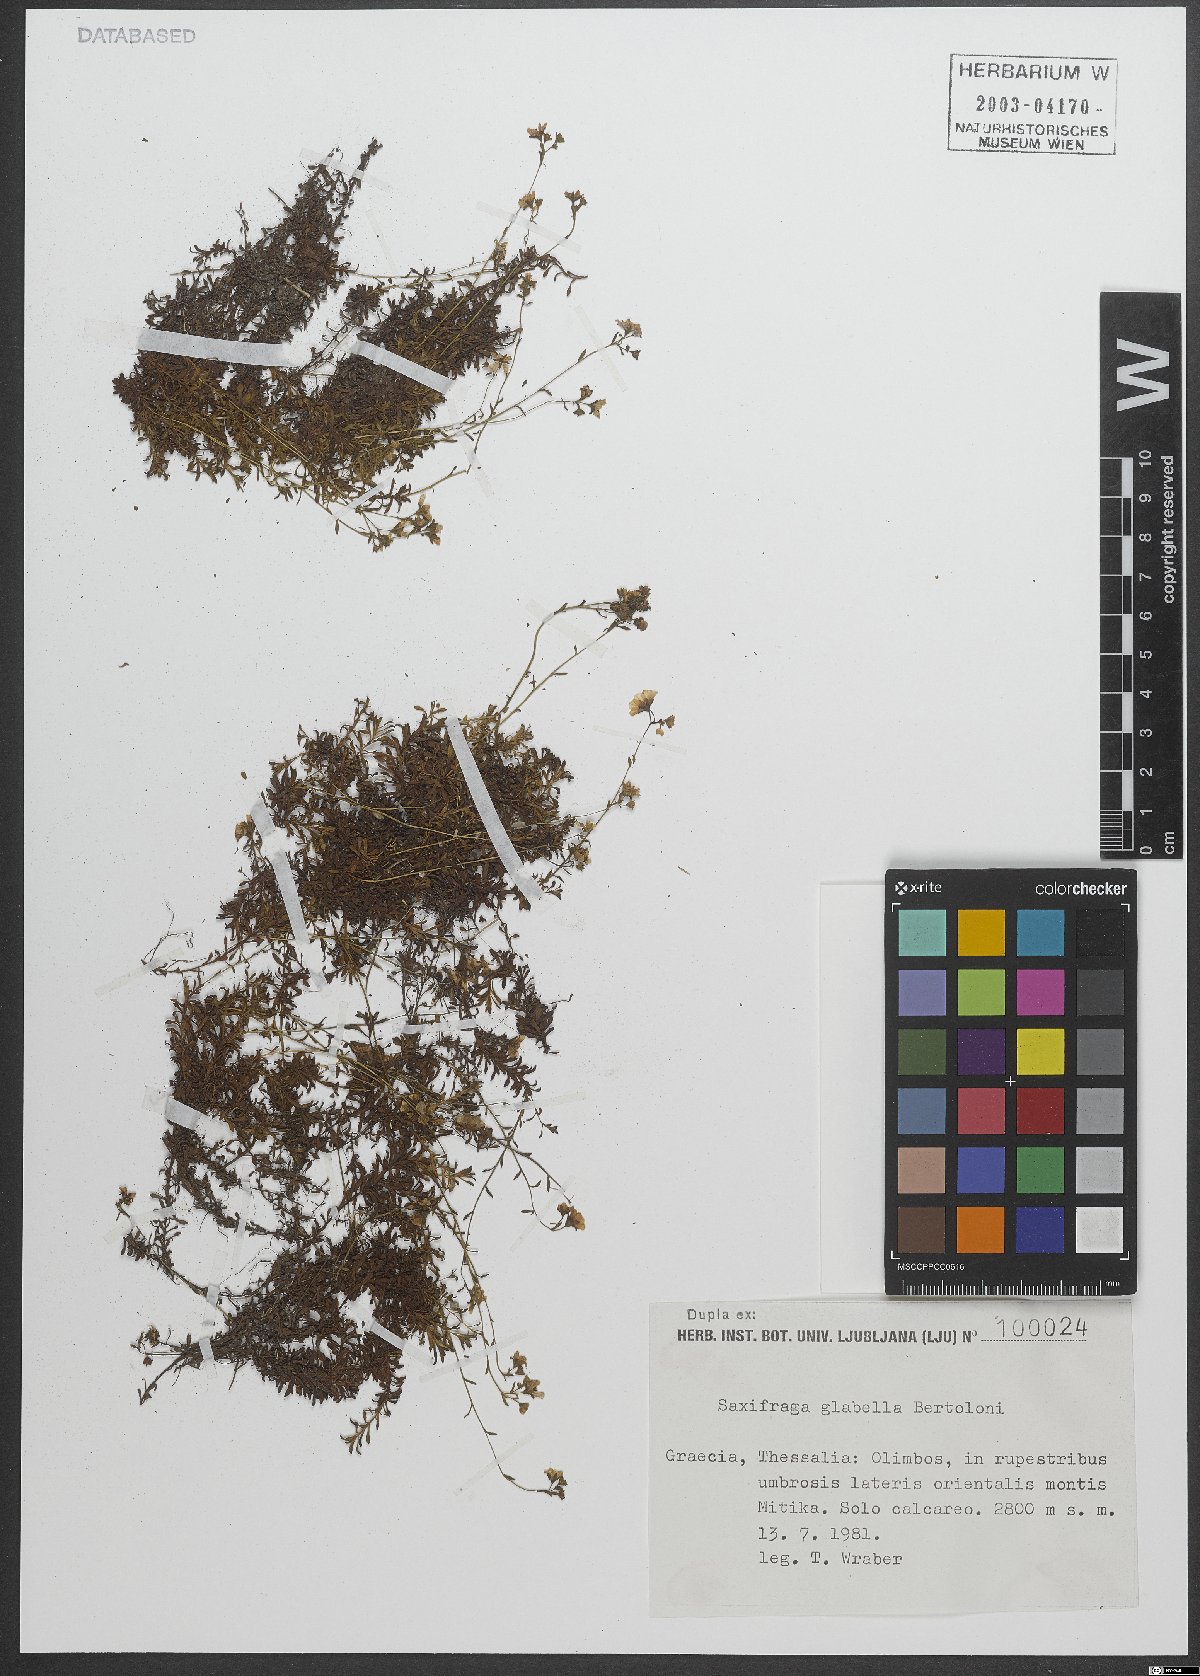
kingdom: Plantae
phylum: Tracheophyta
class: Magnoliopsida
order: Saxifragales
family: Saxifragaceae
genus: Saxifraga
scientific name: Saxifraga glabella
